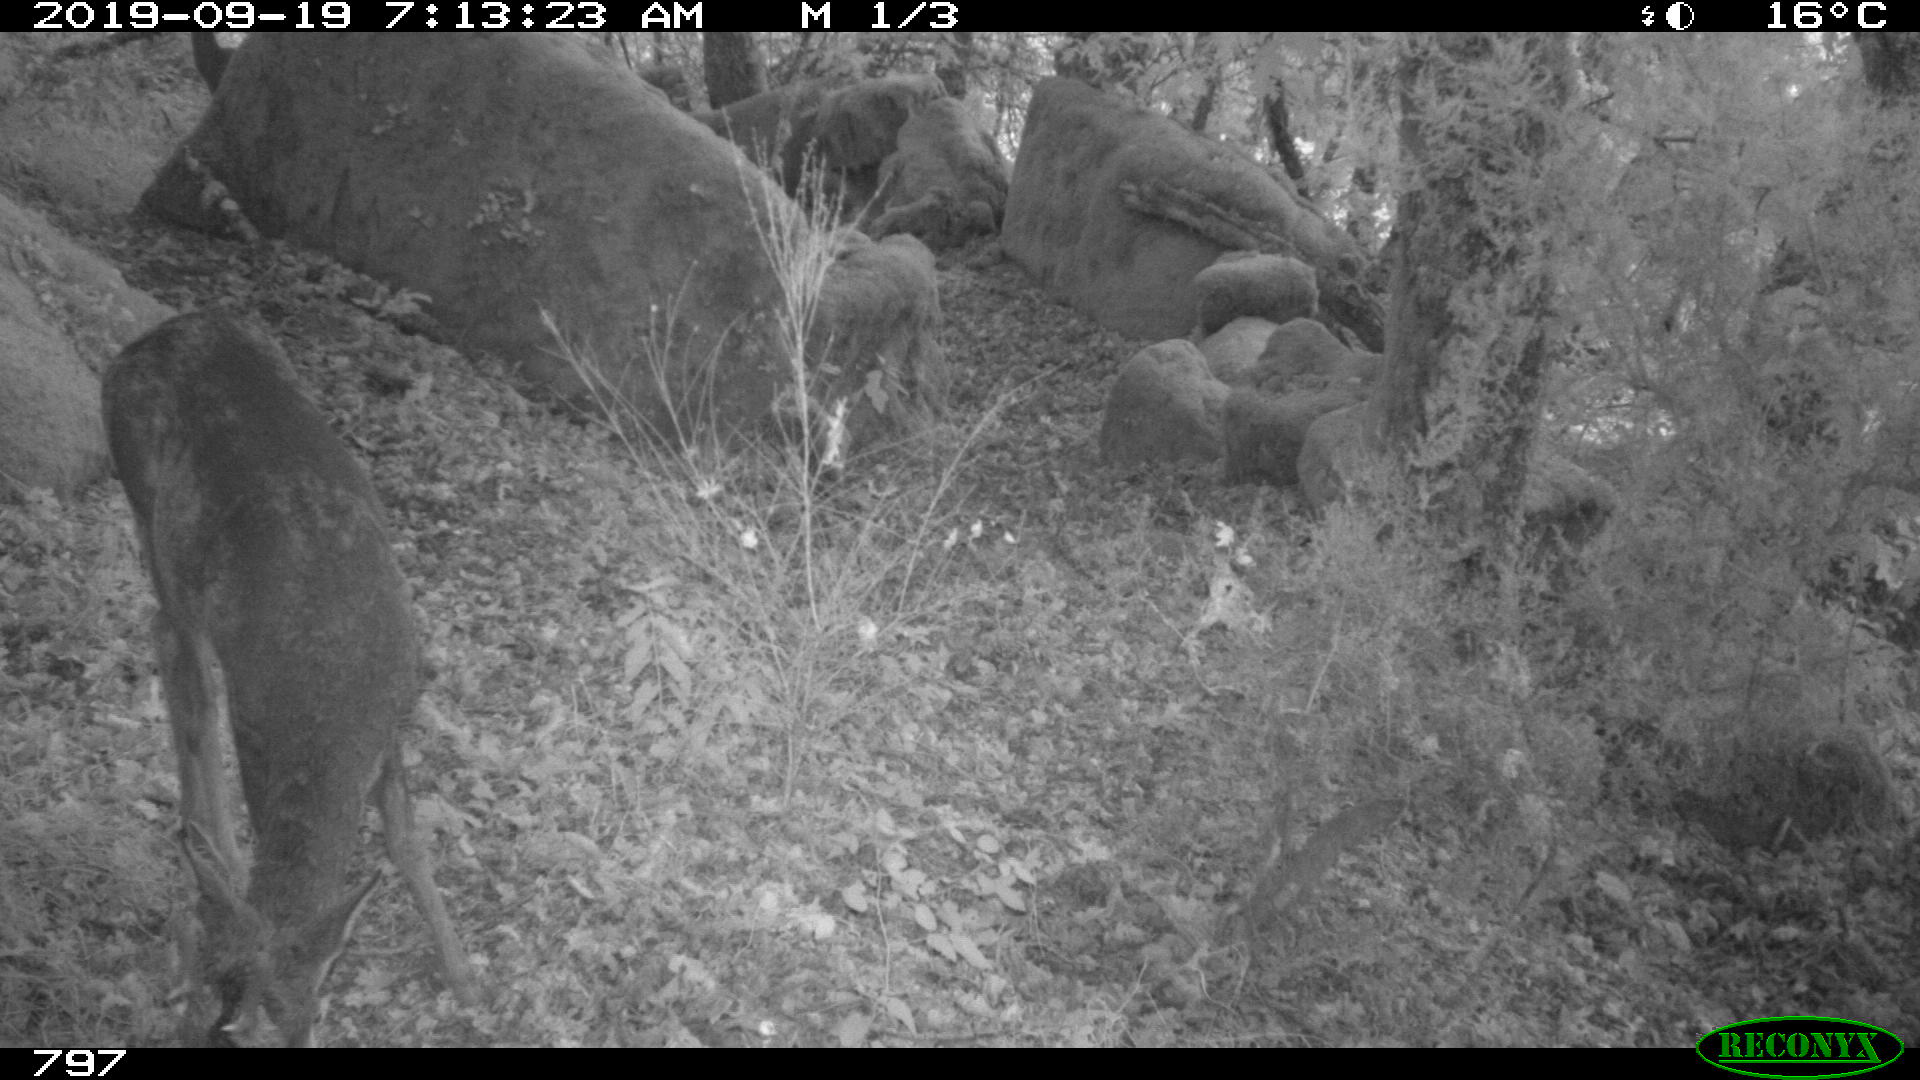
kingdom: Animalia
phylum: Chordata
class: Mammalia
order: Artiodactyla
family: Cervidae
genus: Capreolus
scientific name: Capreolus capreolus
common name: Western roe deer
